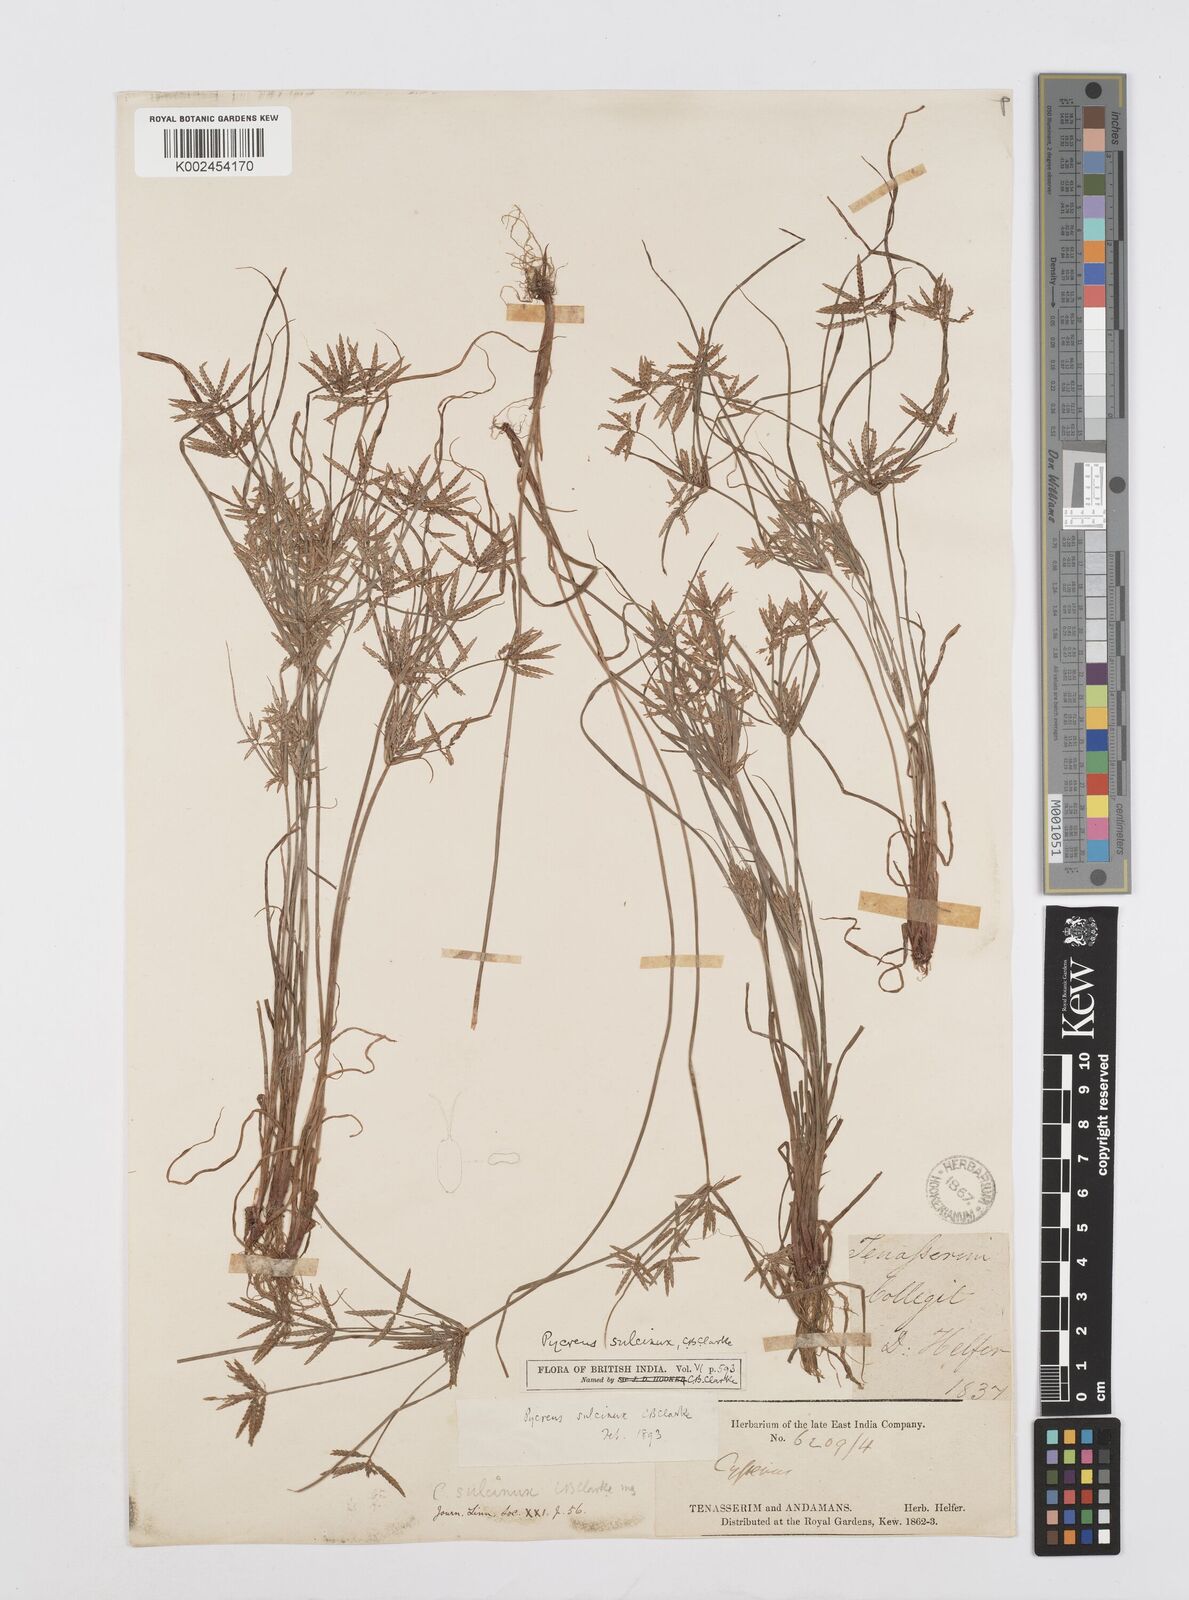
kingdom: Plantae
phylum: Tracheophyta
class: Liliopsida
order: Poales
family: Cyperaceae
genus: Cyperus
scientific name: Cyperus sulcinux
